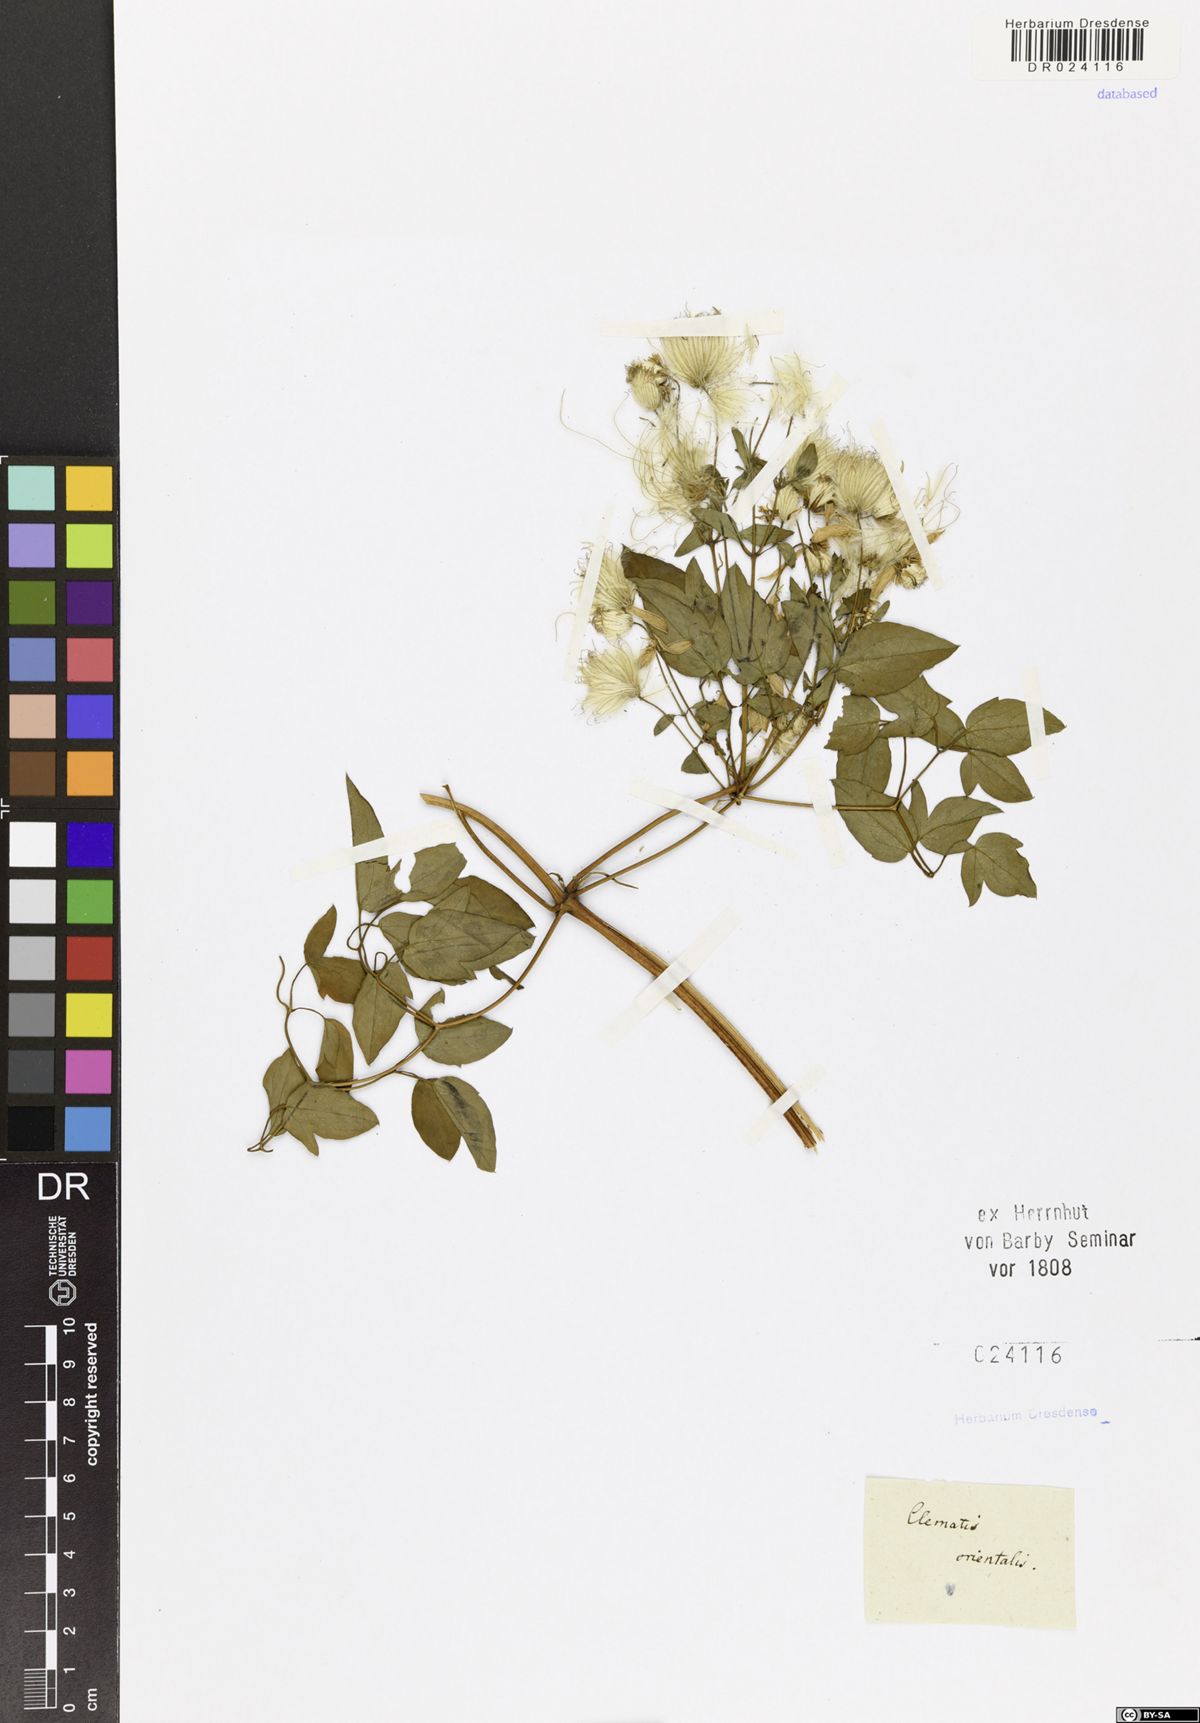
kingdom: Plantae
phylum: Tracheophyta
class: Magnoliopsida
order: Ranunculales
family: Ranunculaceae
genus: Clematis
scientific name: Clematis orientalis
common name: Oriental virgin's-bower
